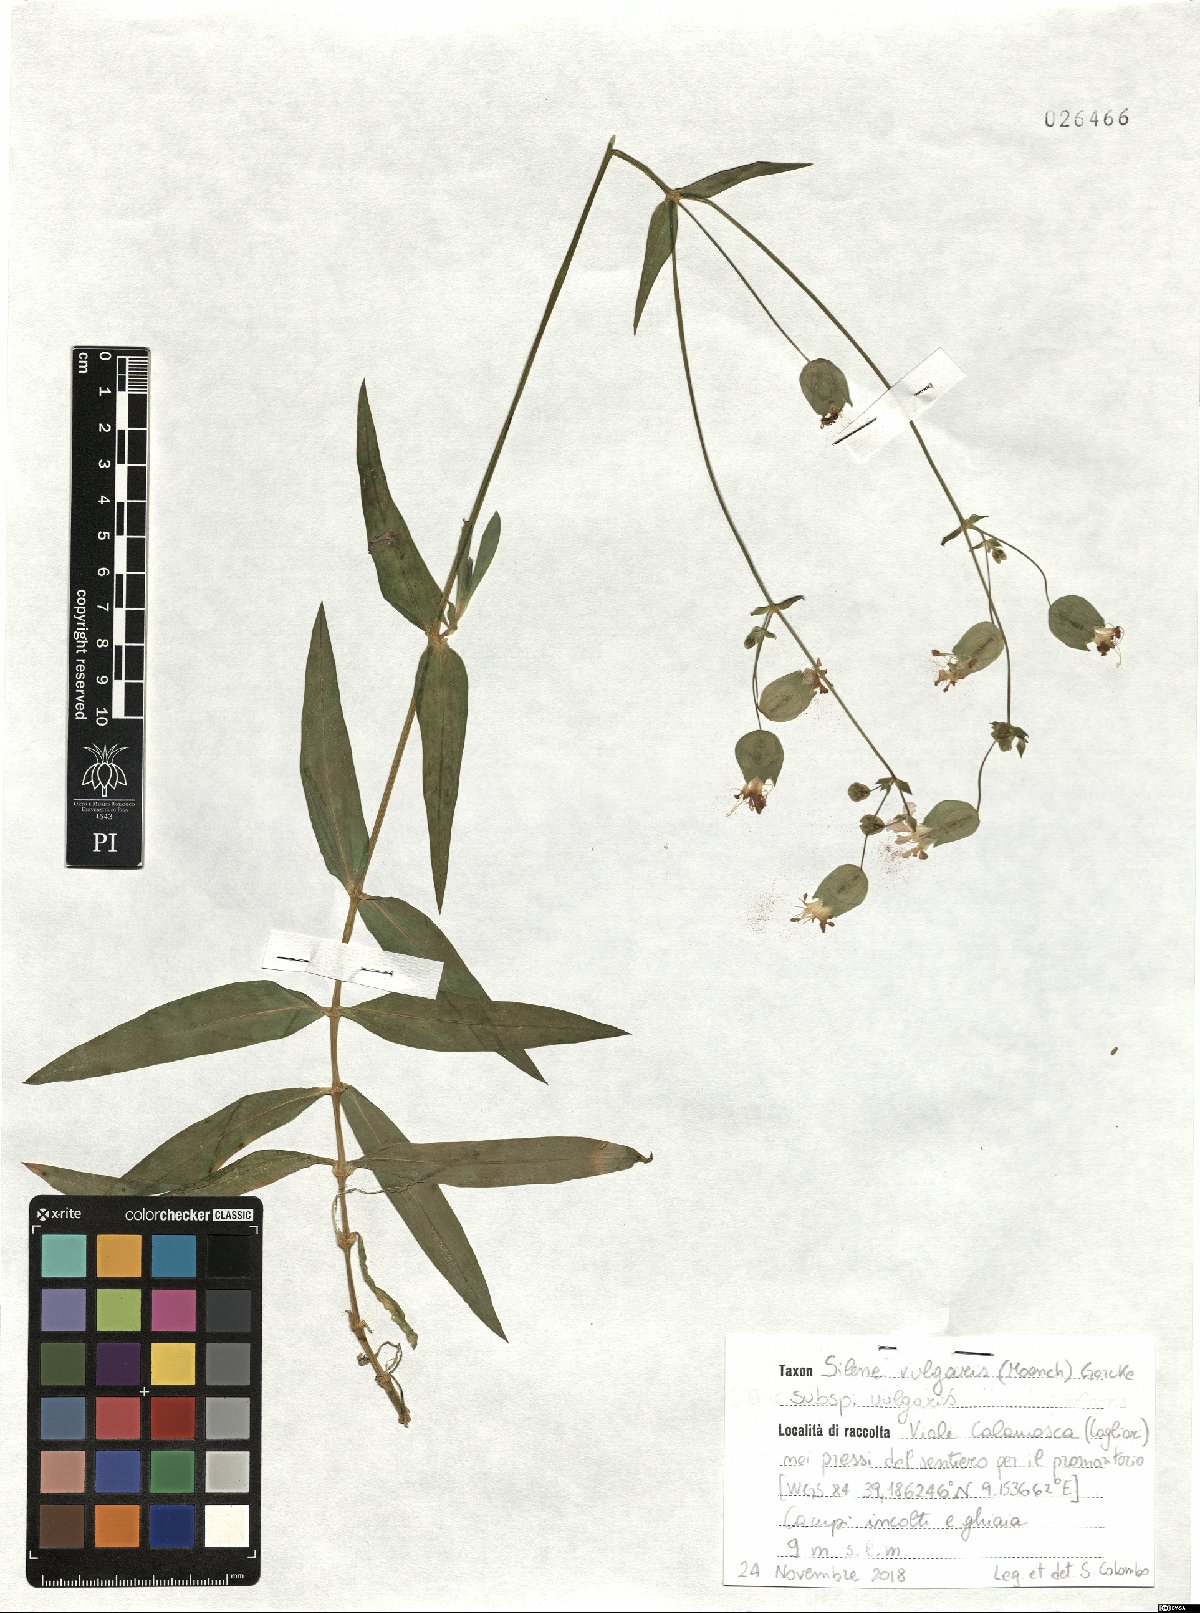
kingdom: Plantae
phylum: Tracheophyta
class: Magnoliopsida
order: Caryophyllales
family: Caryophyllaceae
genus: Silene
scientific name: Silene vulgaris
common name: Bladder campion
